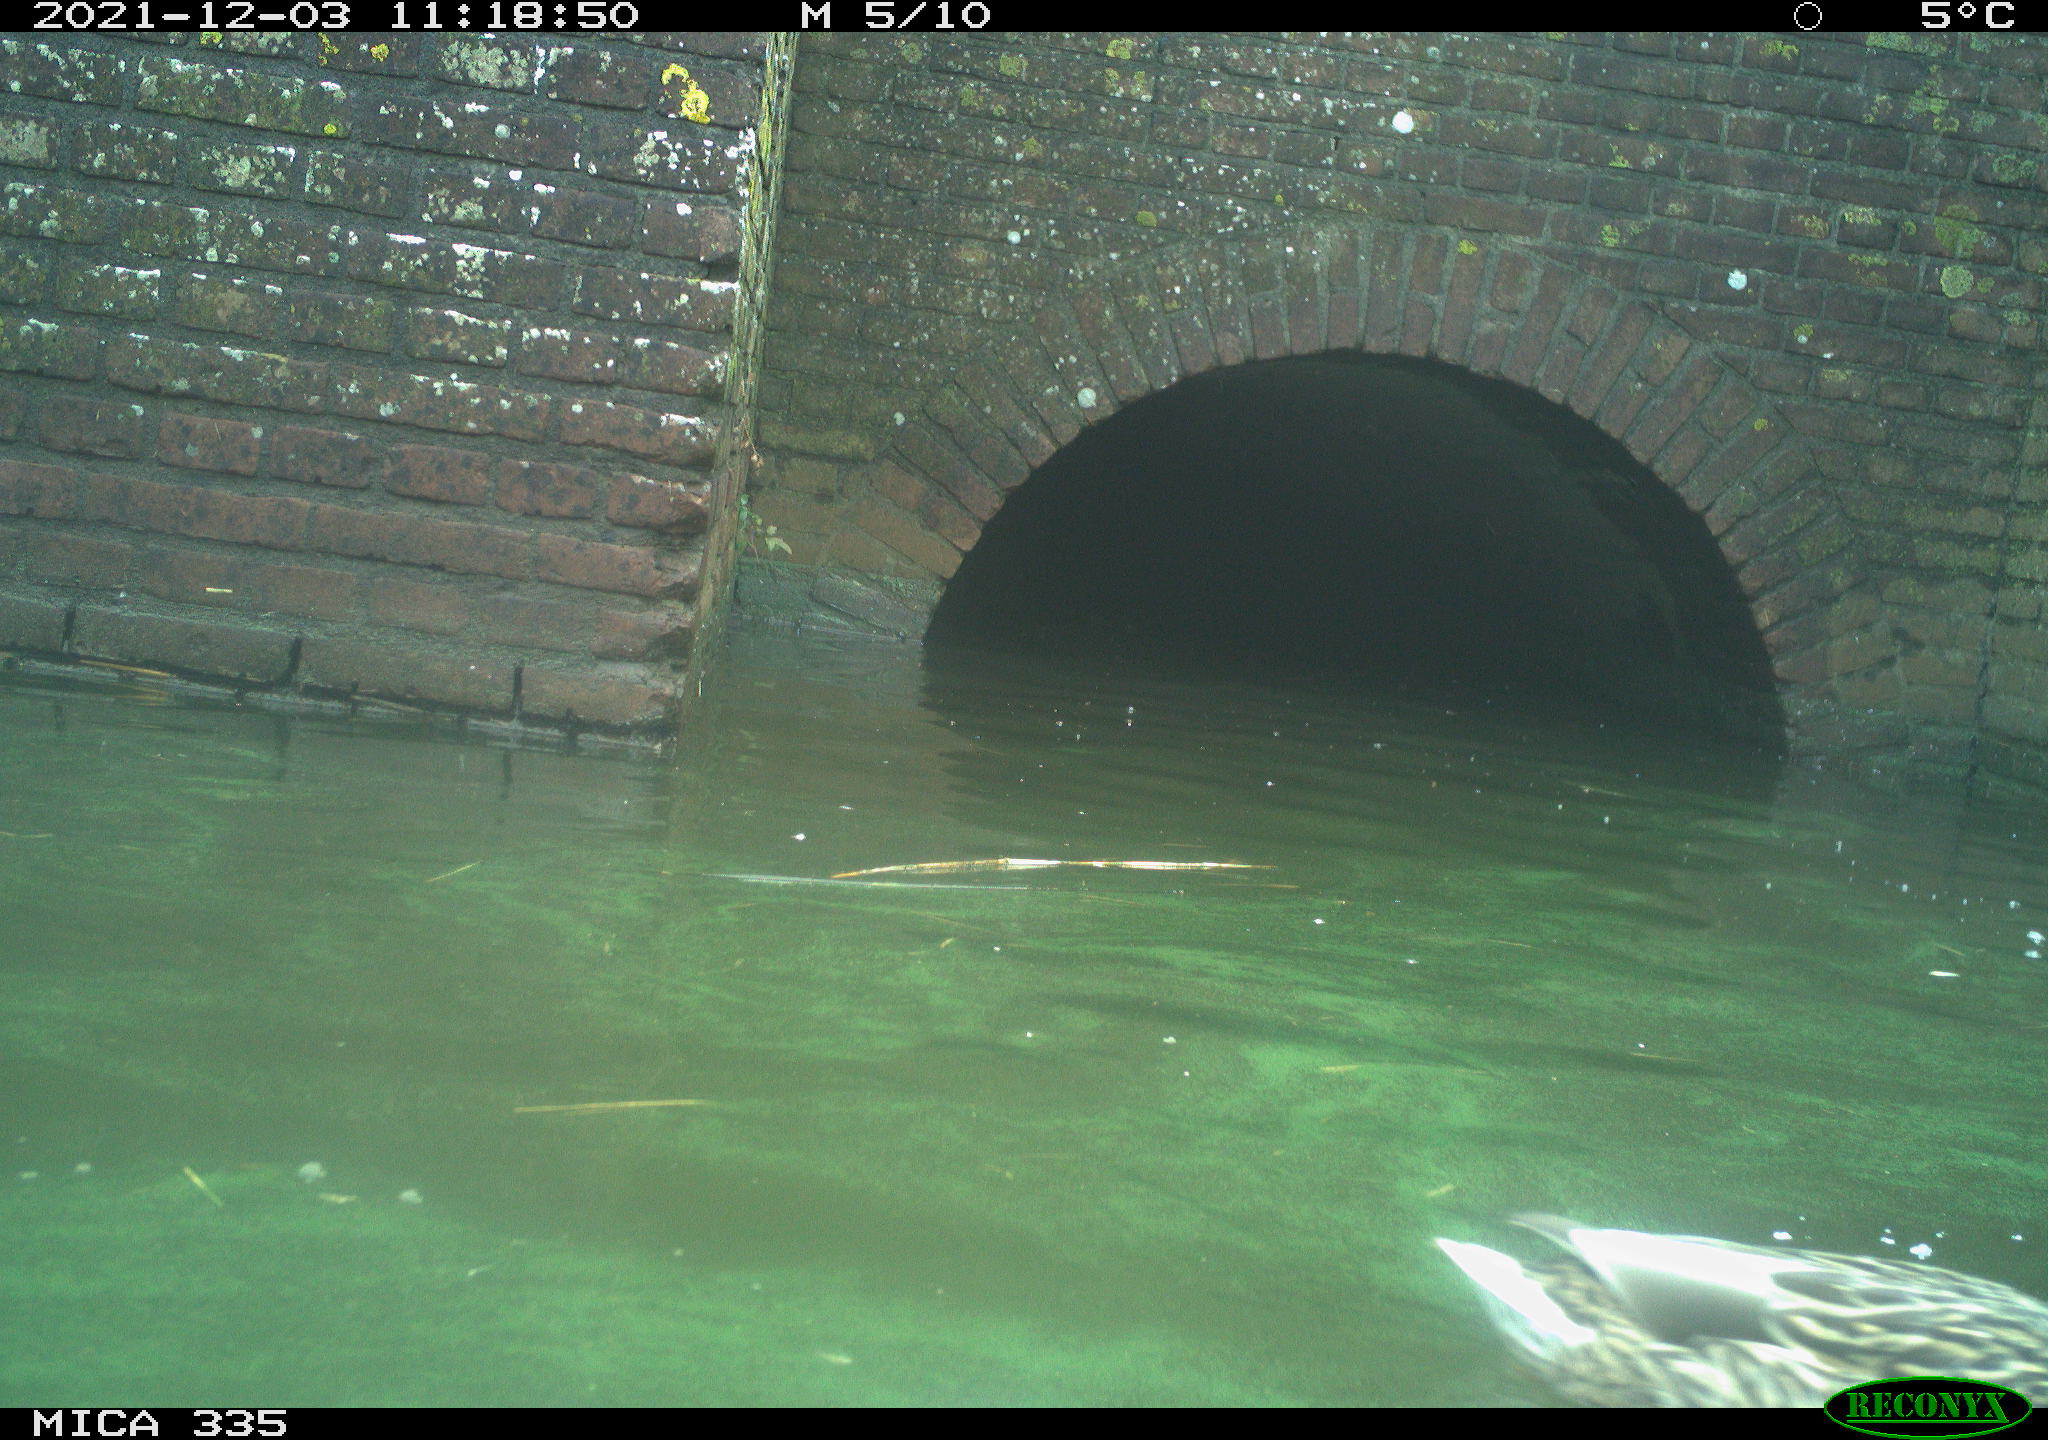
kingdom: Animalia
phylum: Chordata
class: Aves
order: Suliformes
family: Phalacrocoracidae
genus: Phalacrocorax
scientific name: Phalacrocorax carbo
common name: Great cormorant
